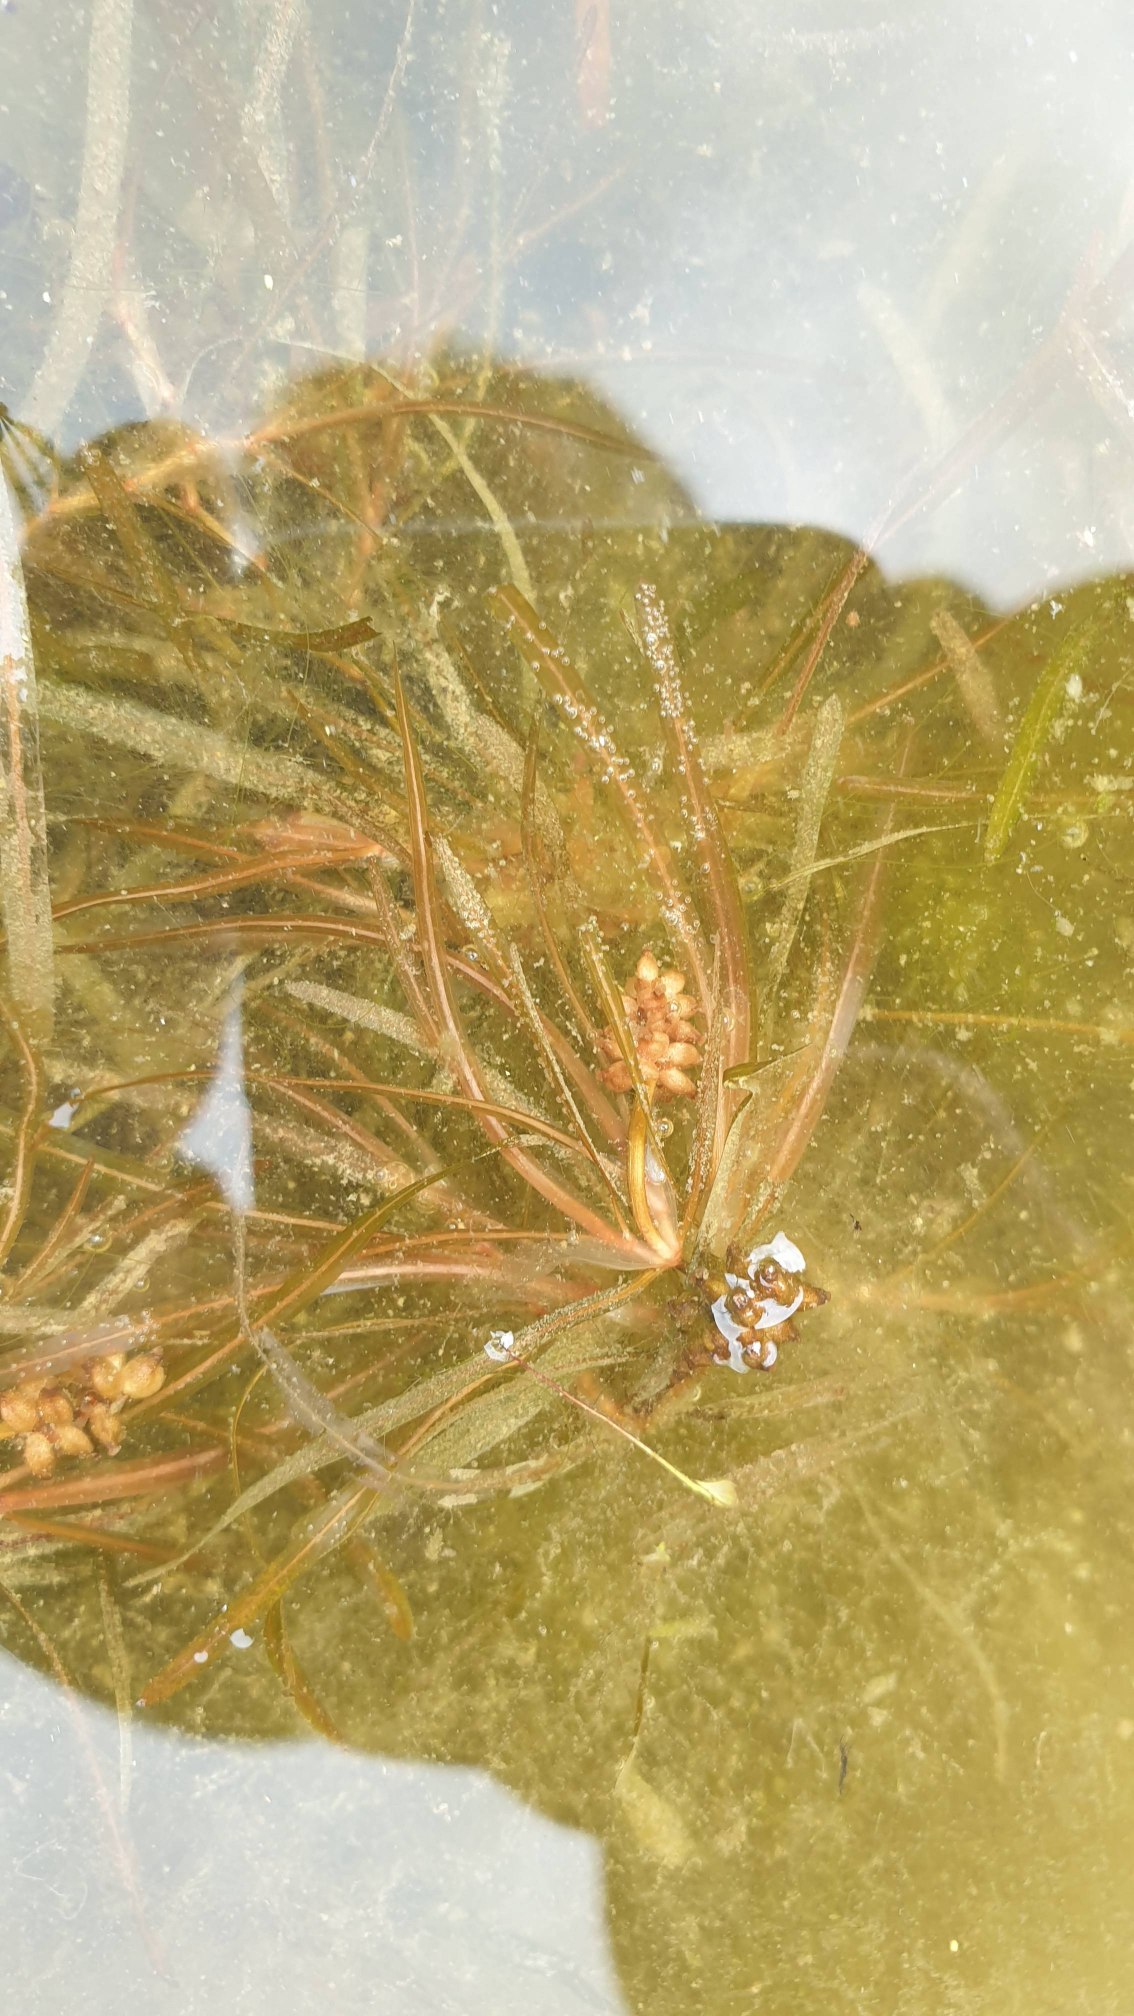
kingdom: Plantae
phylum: Tracheophyta
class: Liliopsida
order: Alismatales
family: Potamogetonaceae
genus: Potamogeton
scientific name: Potamogeton obtusifolius
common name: Butbladet vandaks
